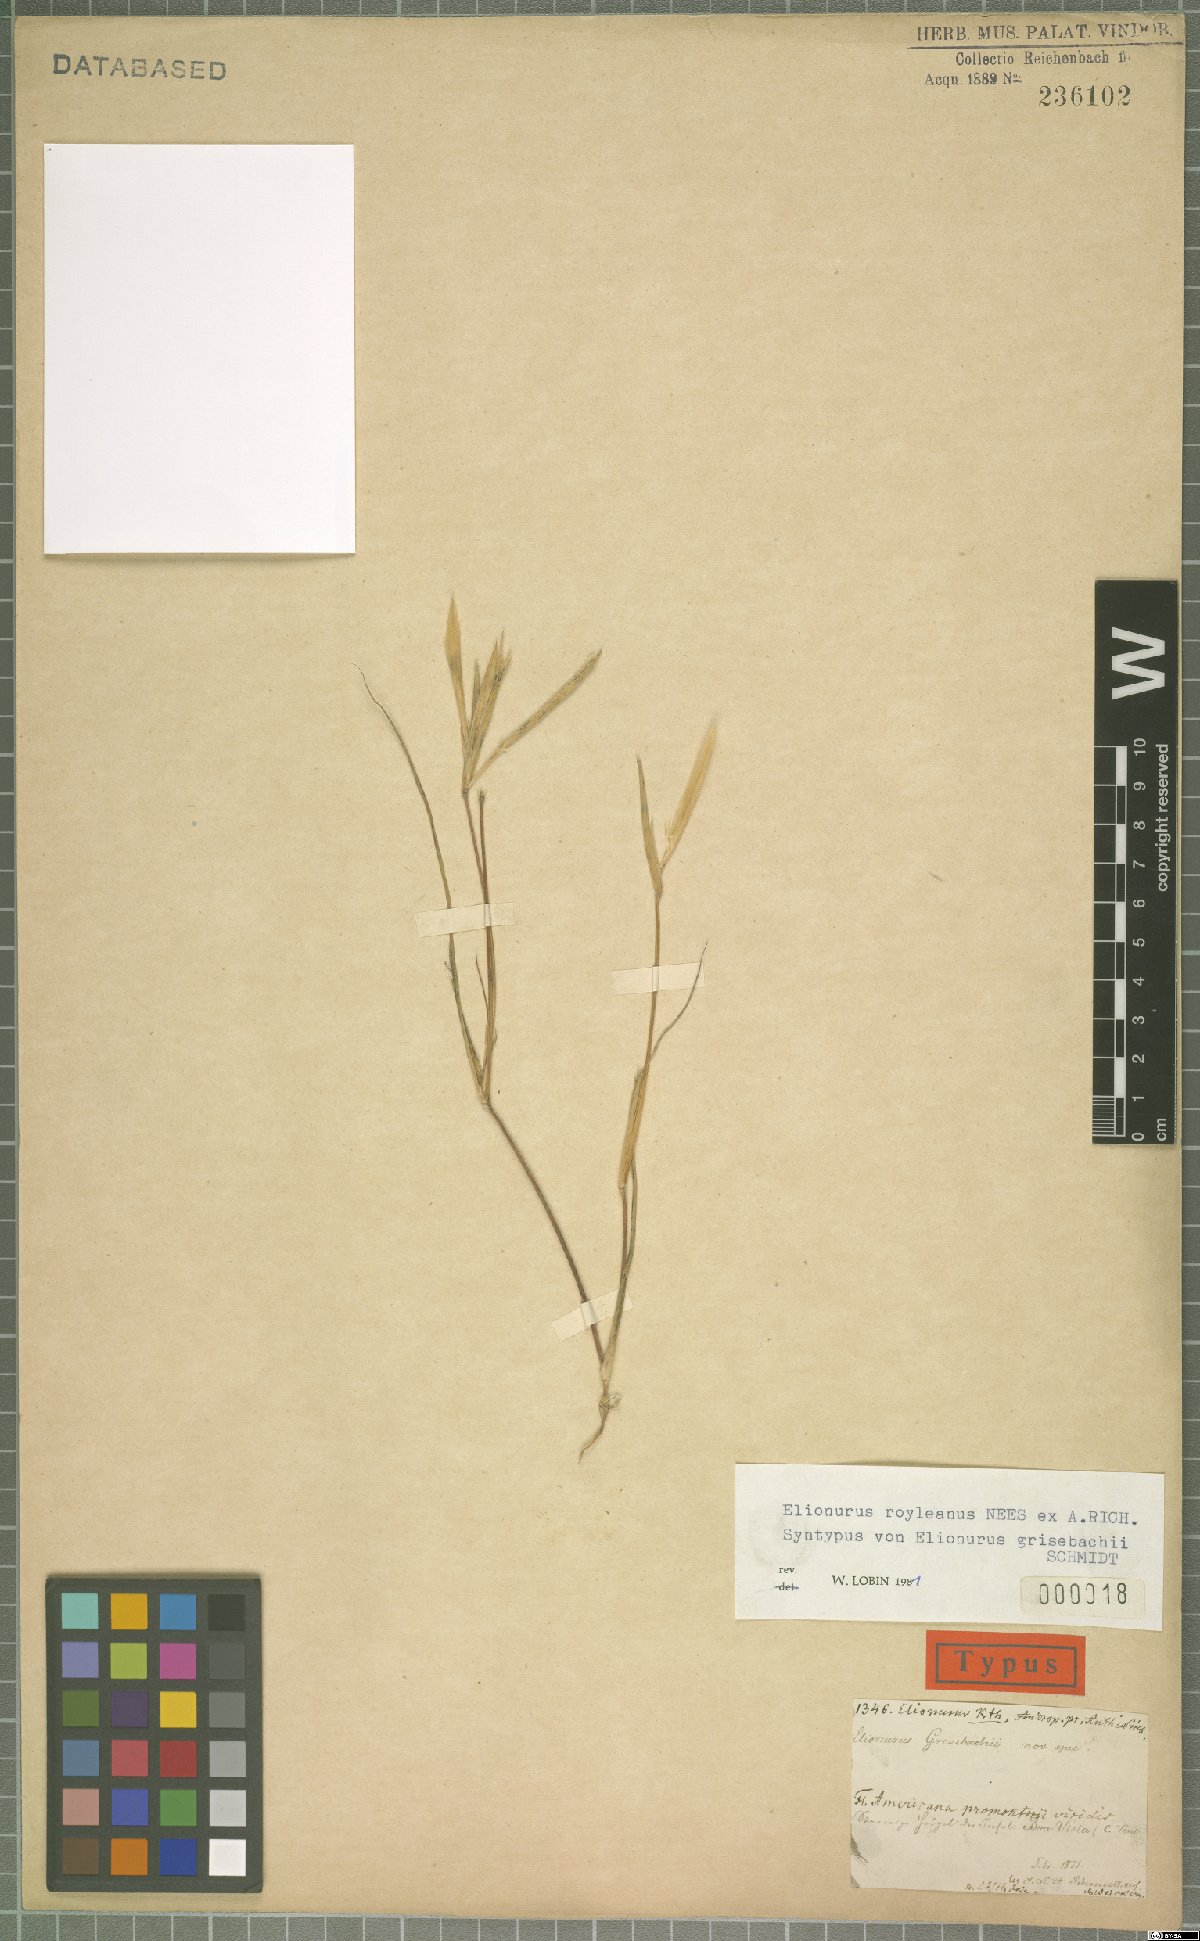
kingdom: Plantae
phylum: Tracheophyta
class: Liliopsida
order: Poales
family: Poaceae
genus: Elionurus
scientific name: Elionurus royleanus
